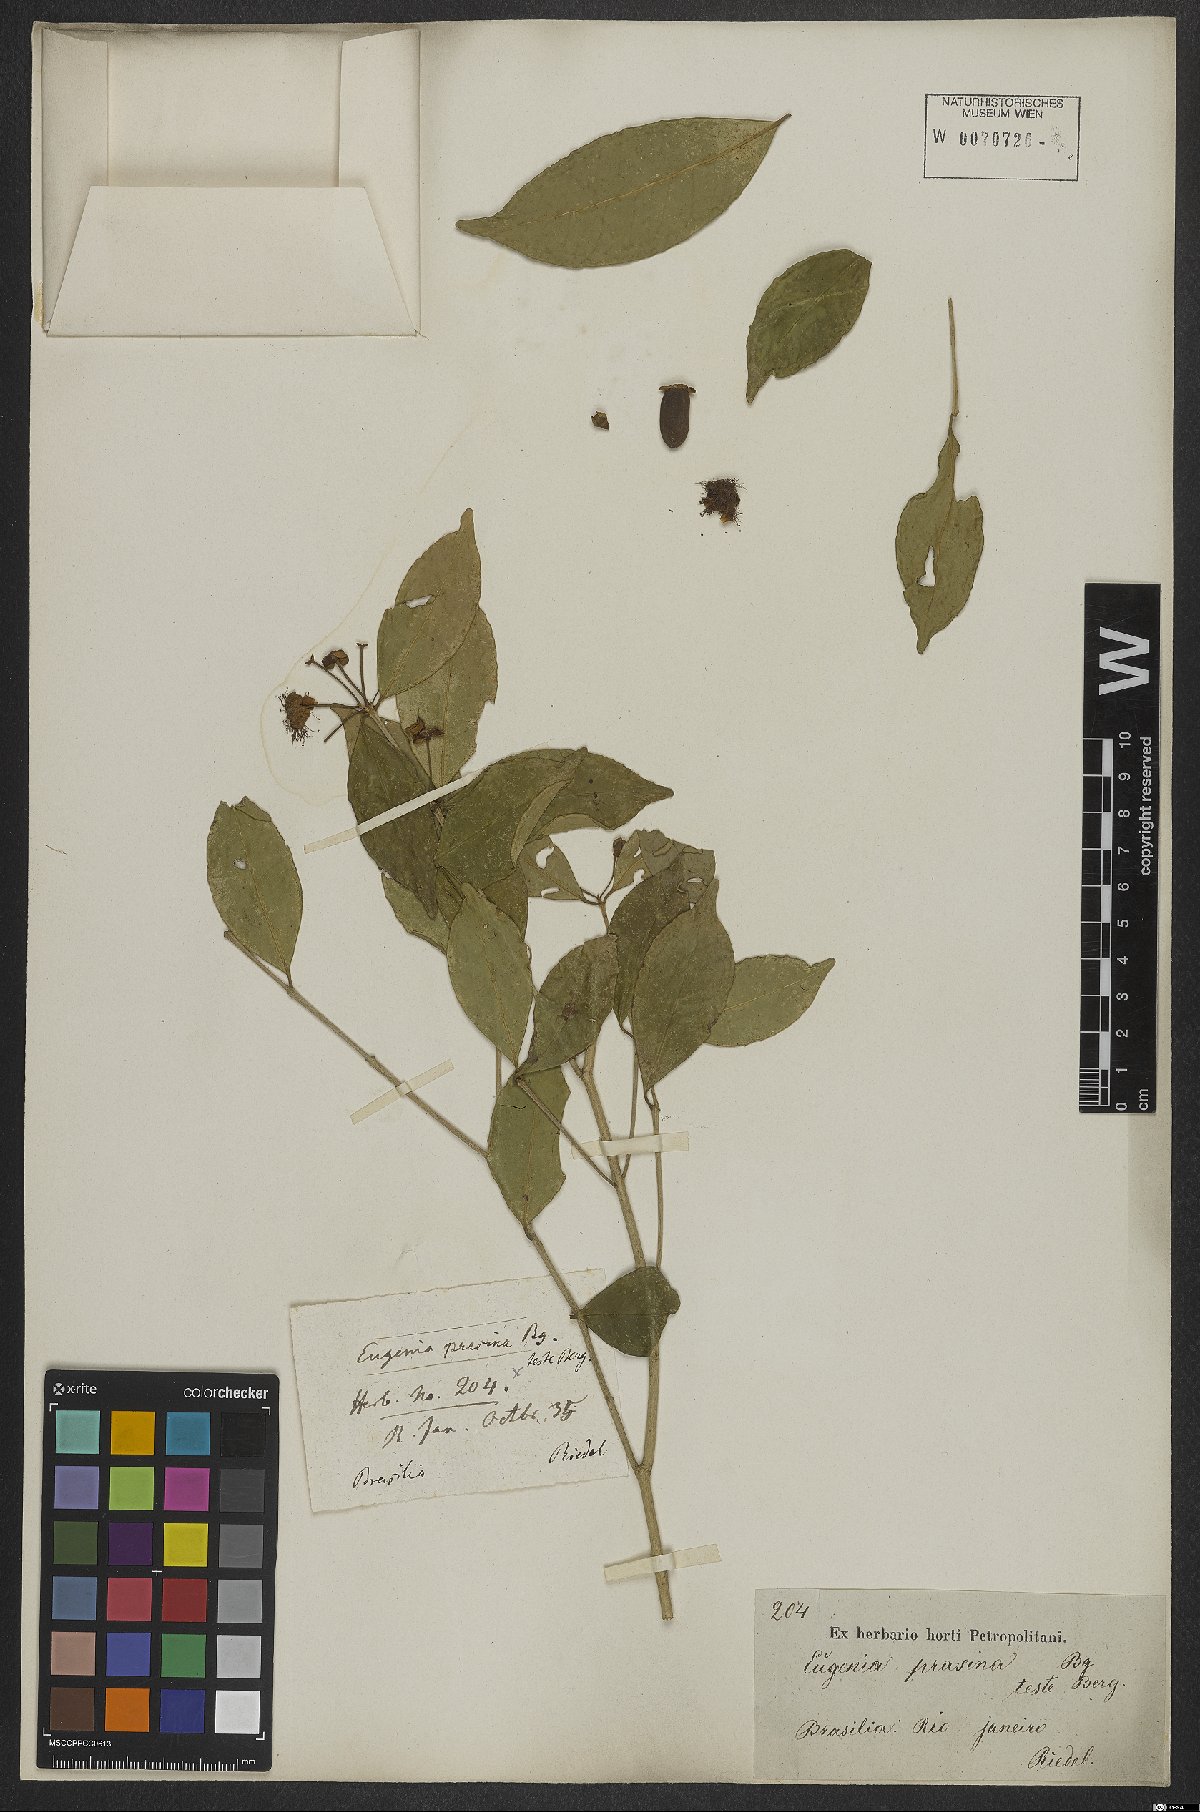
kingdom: Plantae
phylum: Tracheophyta
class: Magnoliopsida
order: Myrtales
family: Myrtaceae
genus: Eugenia
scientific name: Eugenia pluriflora
